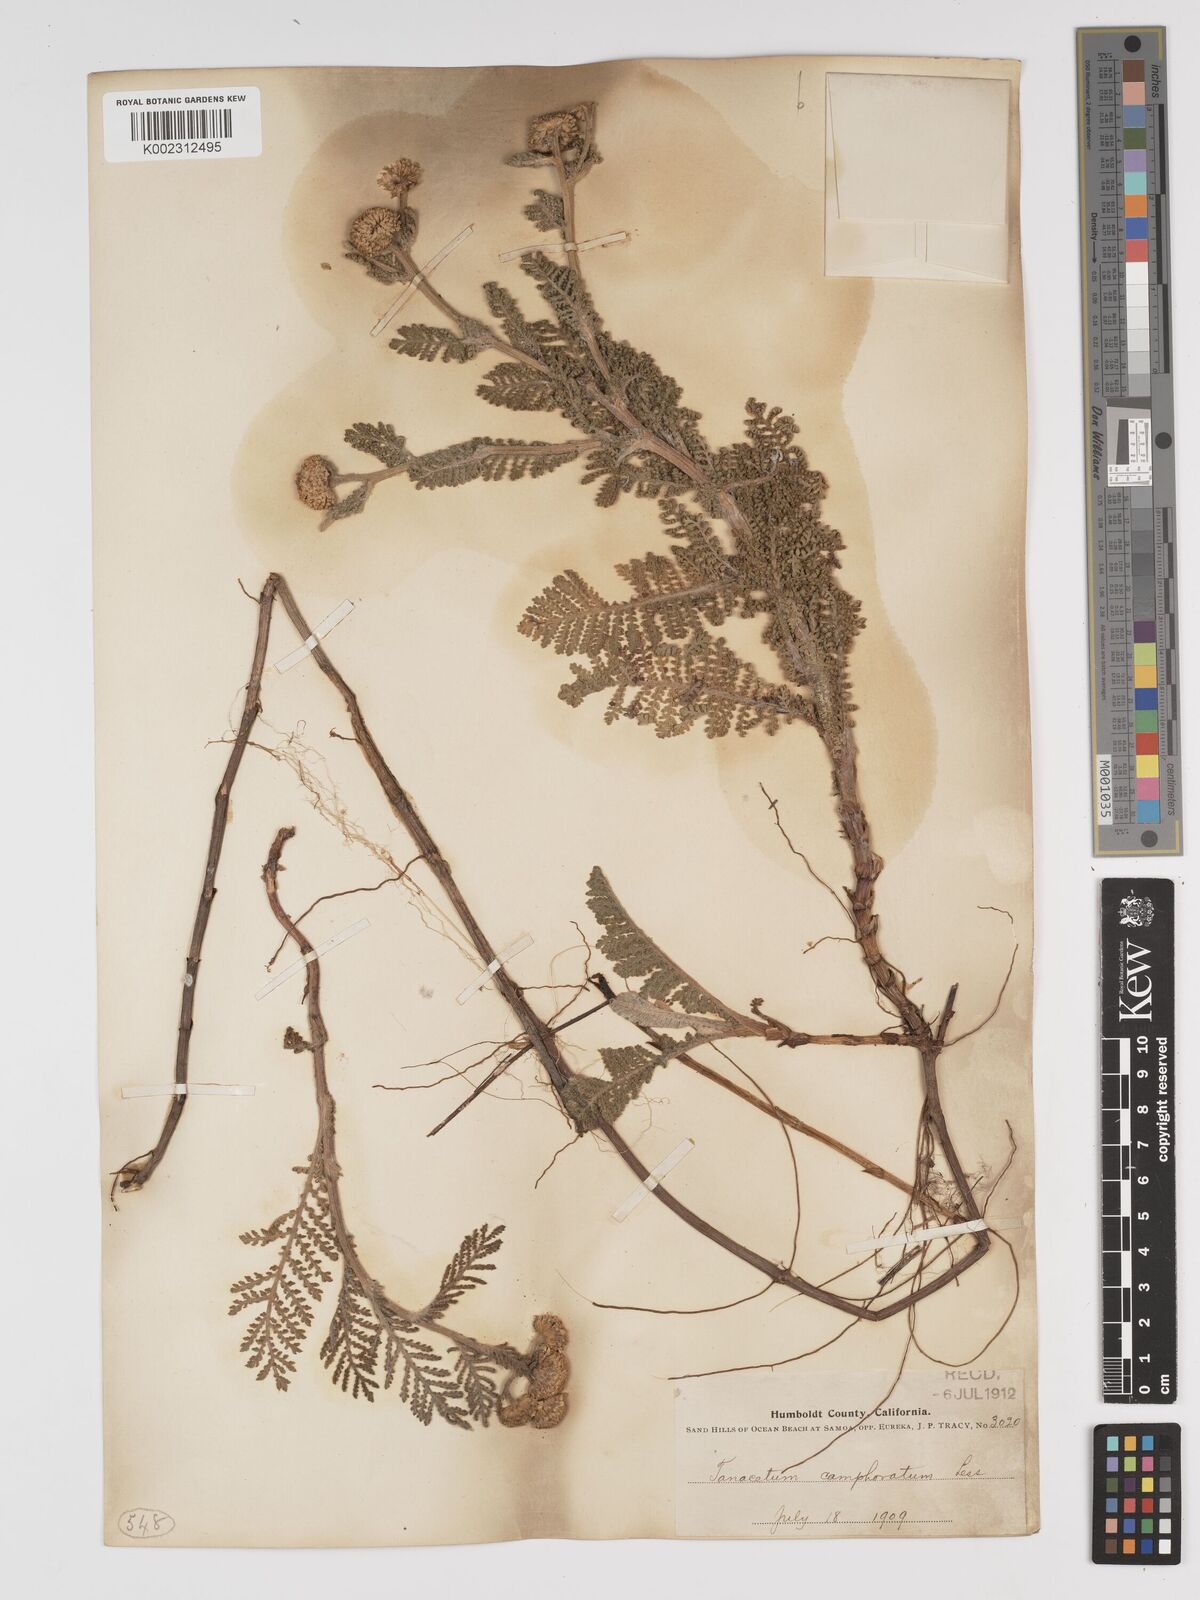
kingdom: Plantae
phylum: Tracheophyta
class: Magnoliopsida
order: Asterales
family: Asteraceae
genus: Tanacetum
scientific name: Tanacetum bipinnatum
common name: Dwarf tansy
